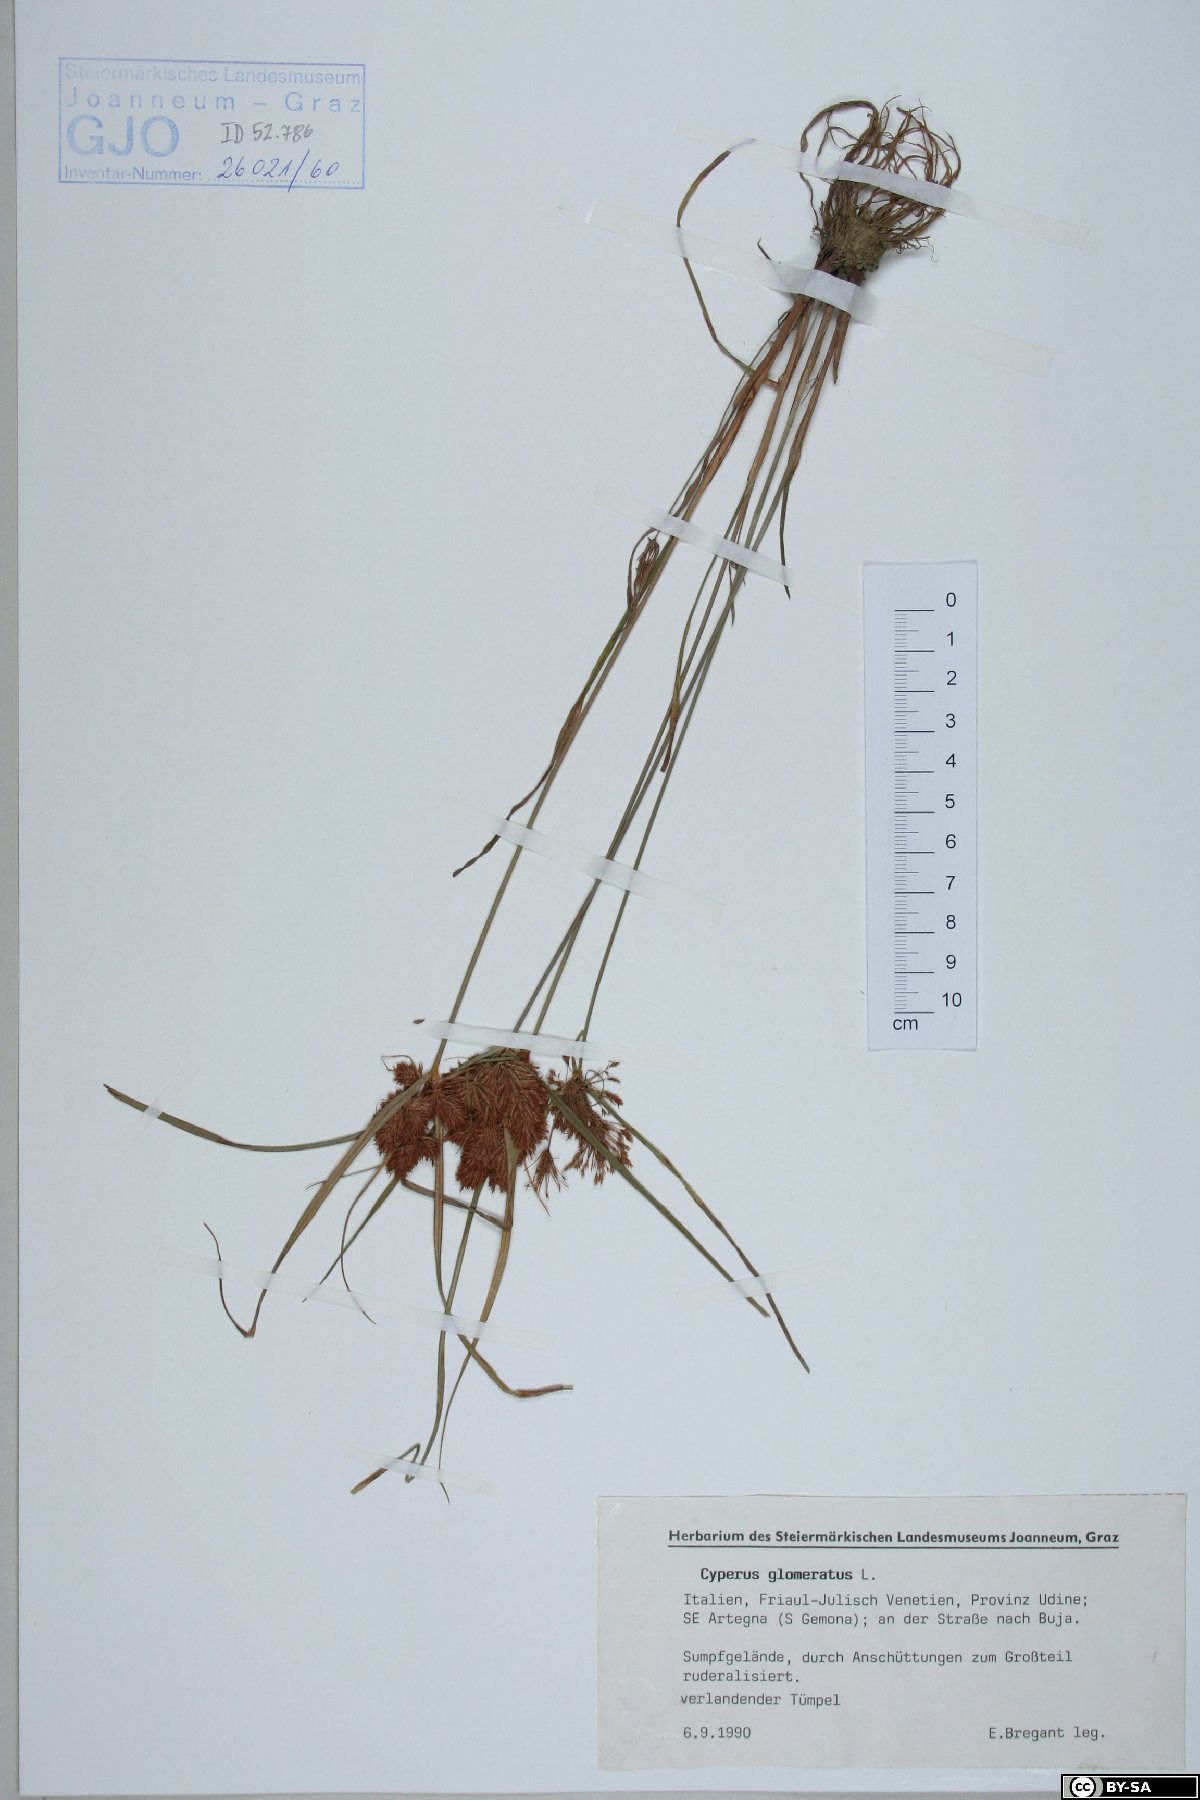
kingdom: Plantae
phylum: Tracheophyta
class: Liliopsida
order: Poales
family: Cyperaceae
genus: Cyperus
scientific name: Cyperus glomeratus
